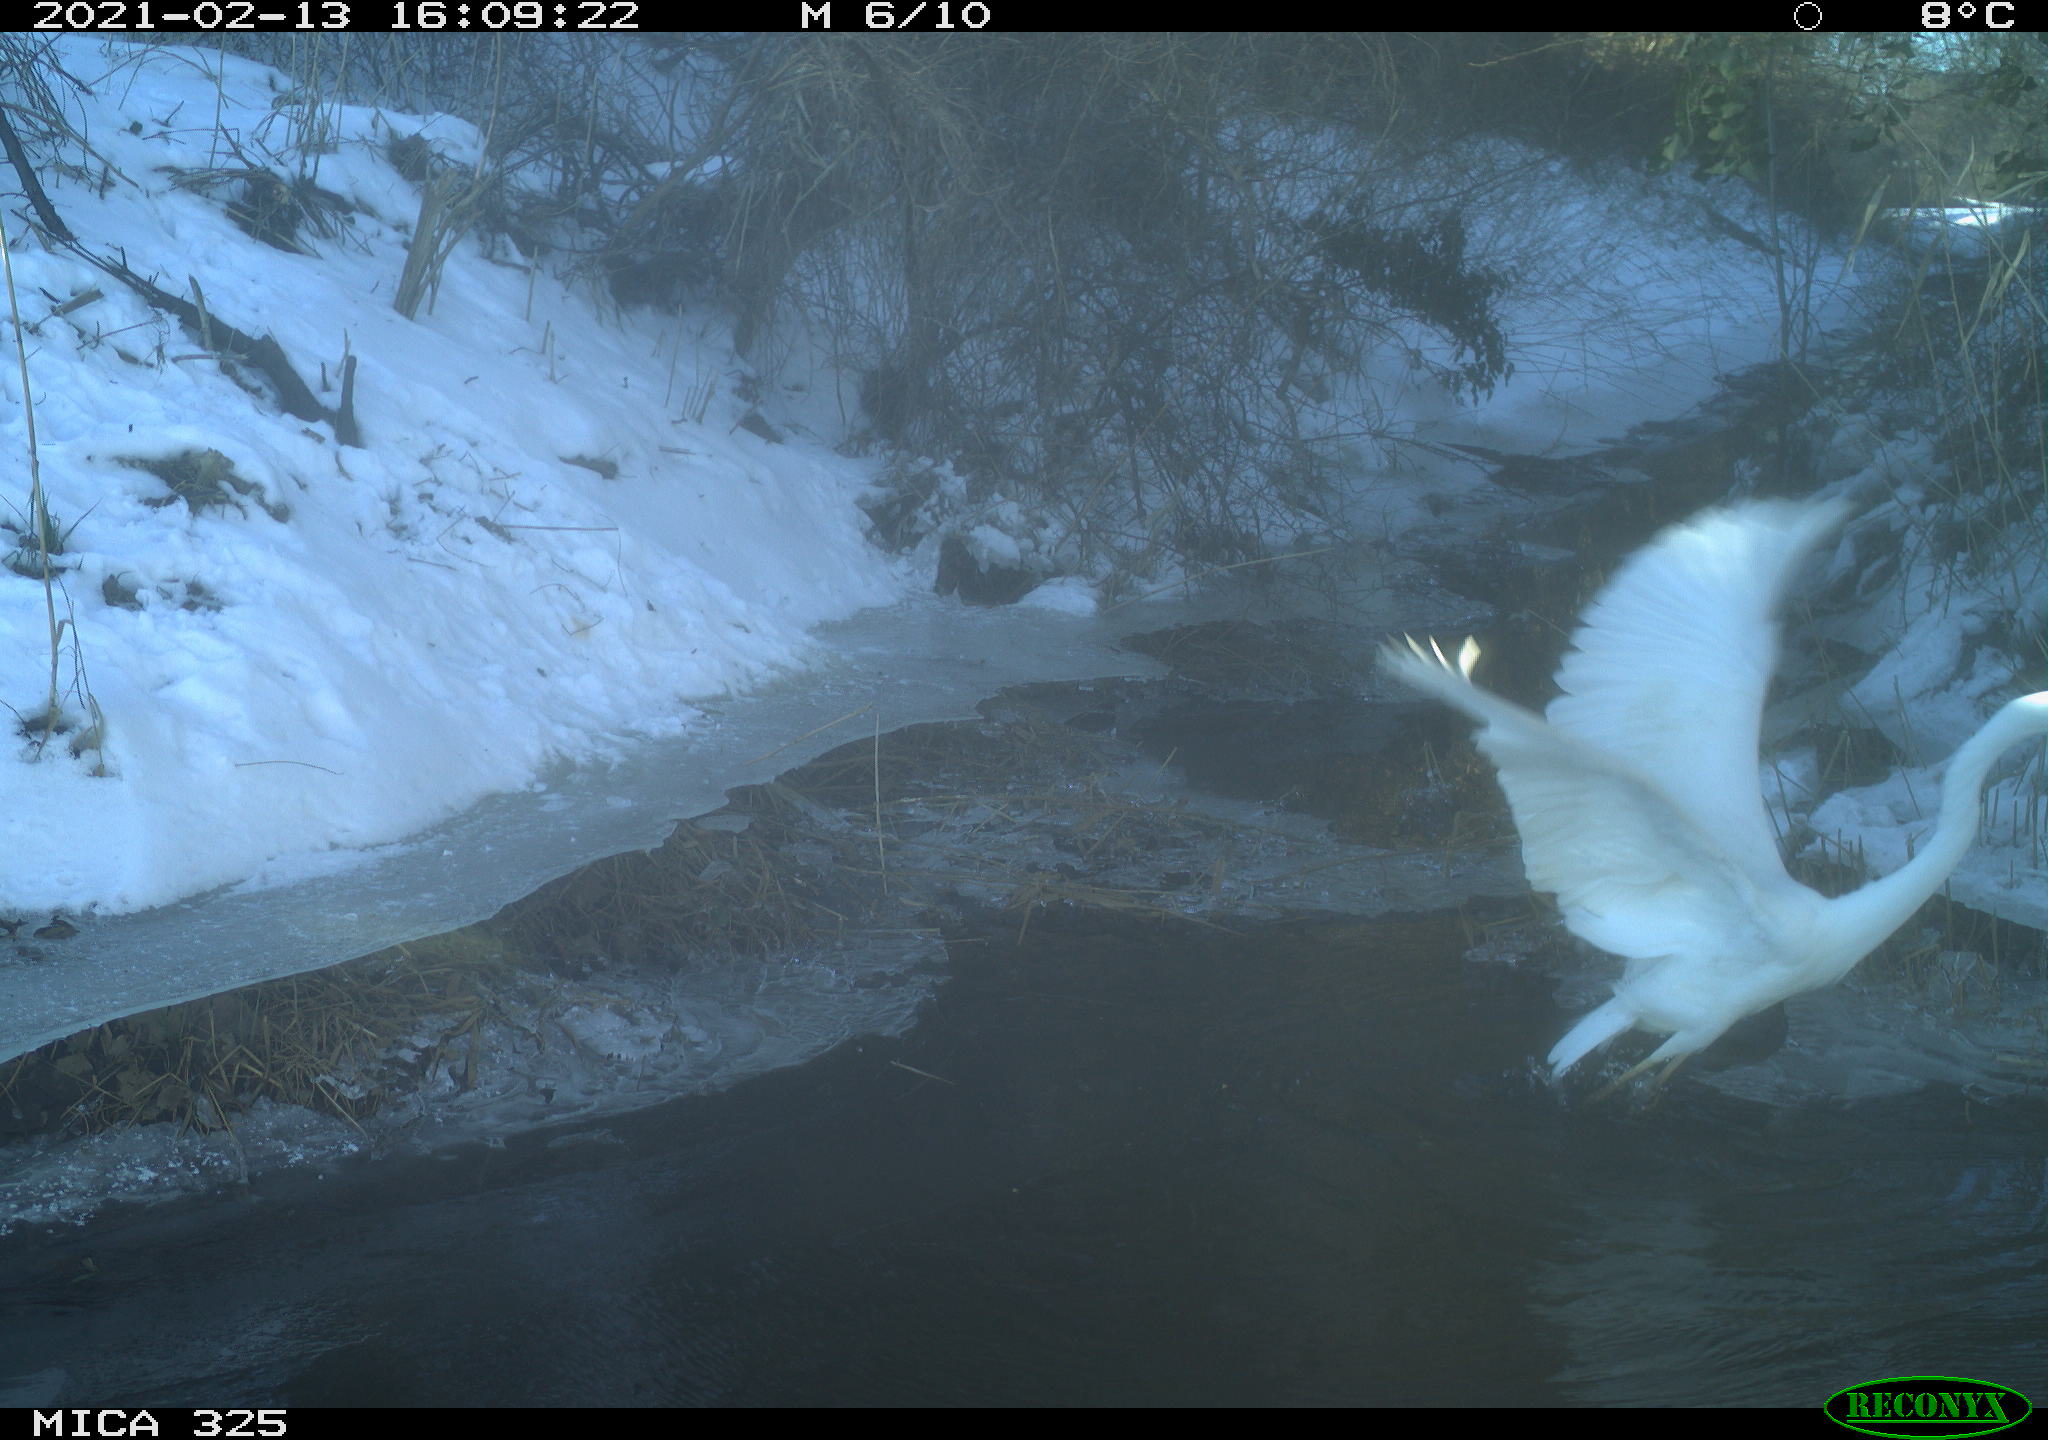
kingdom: Animalia
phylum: Chordata
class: Aves
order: Pelecaniformes
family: Ardeidae
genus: Ardea
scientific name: Ardea alba
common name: Great egret
